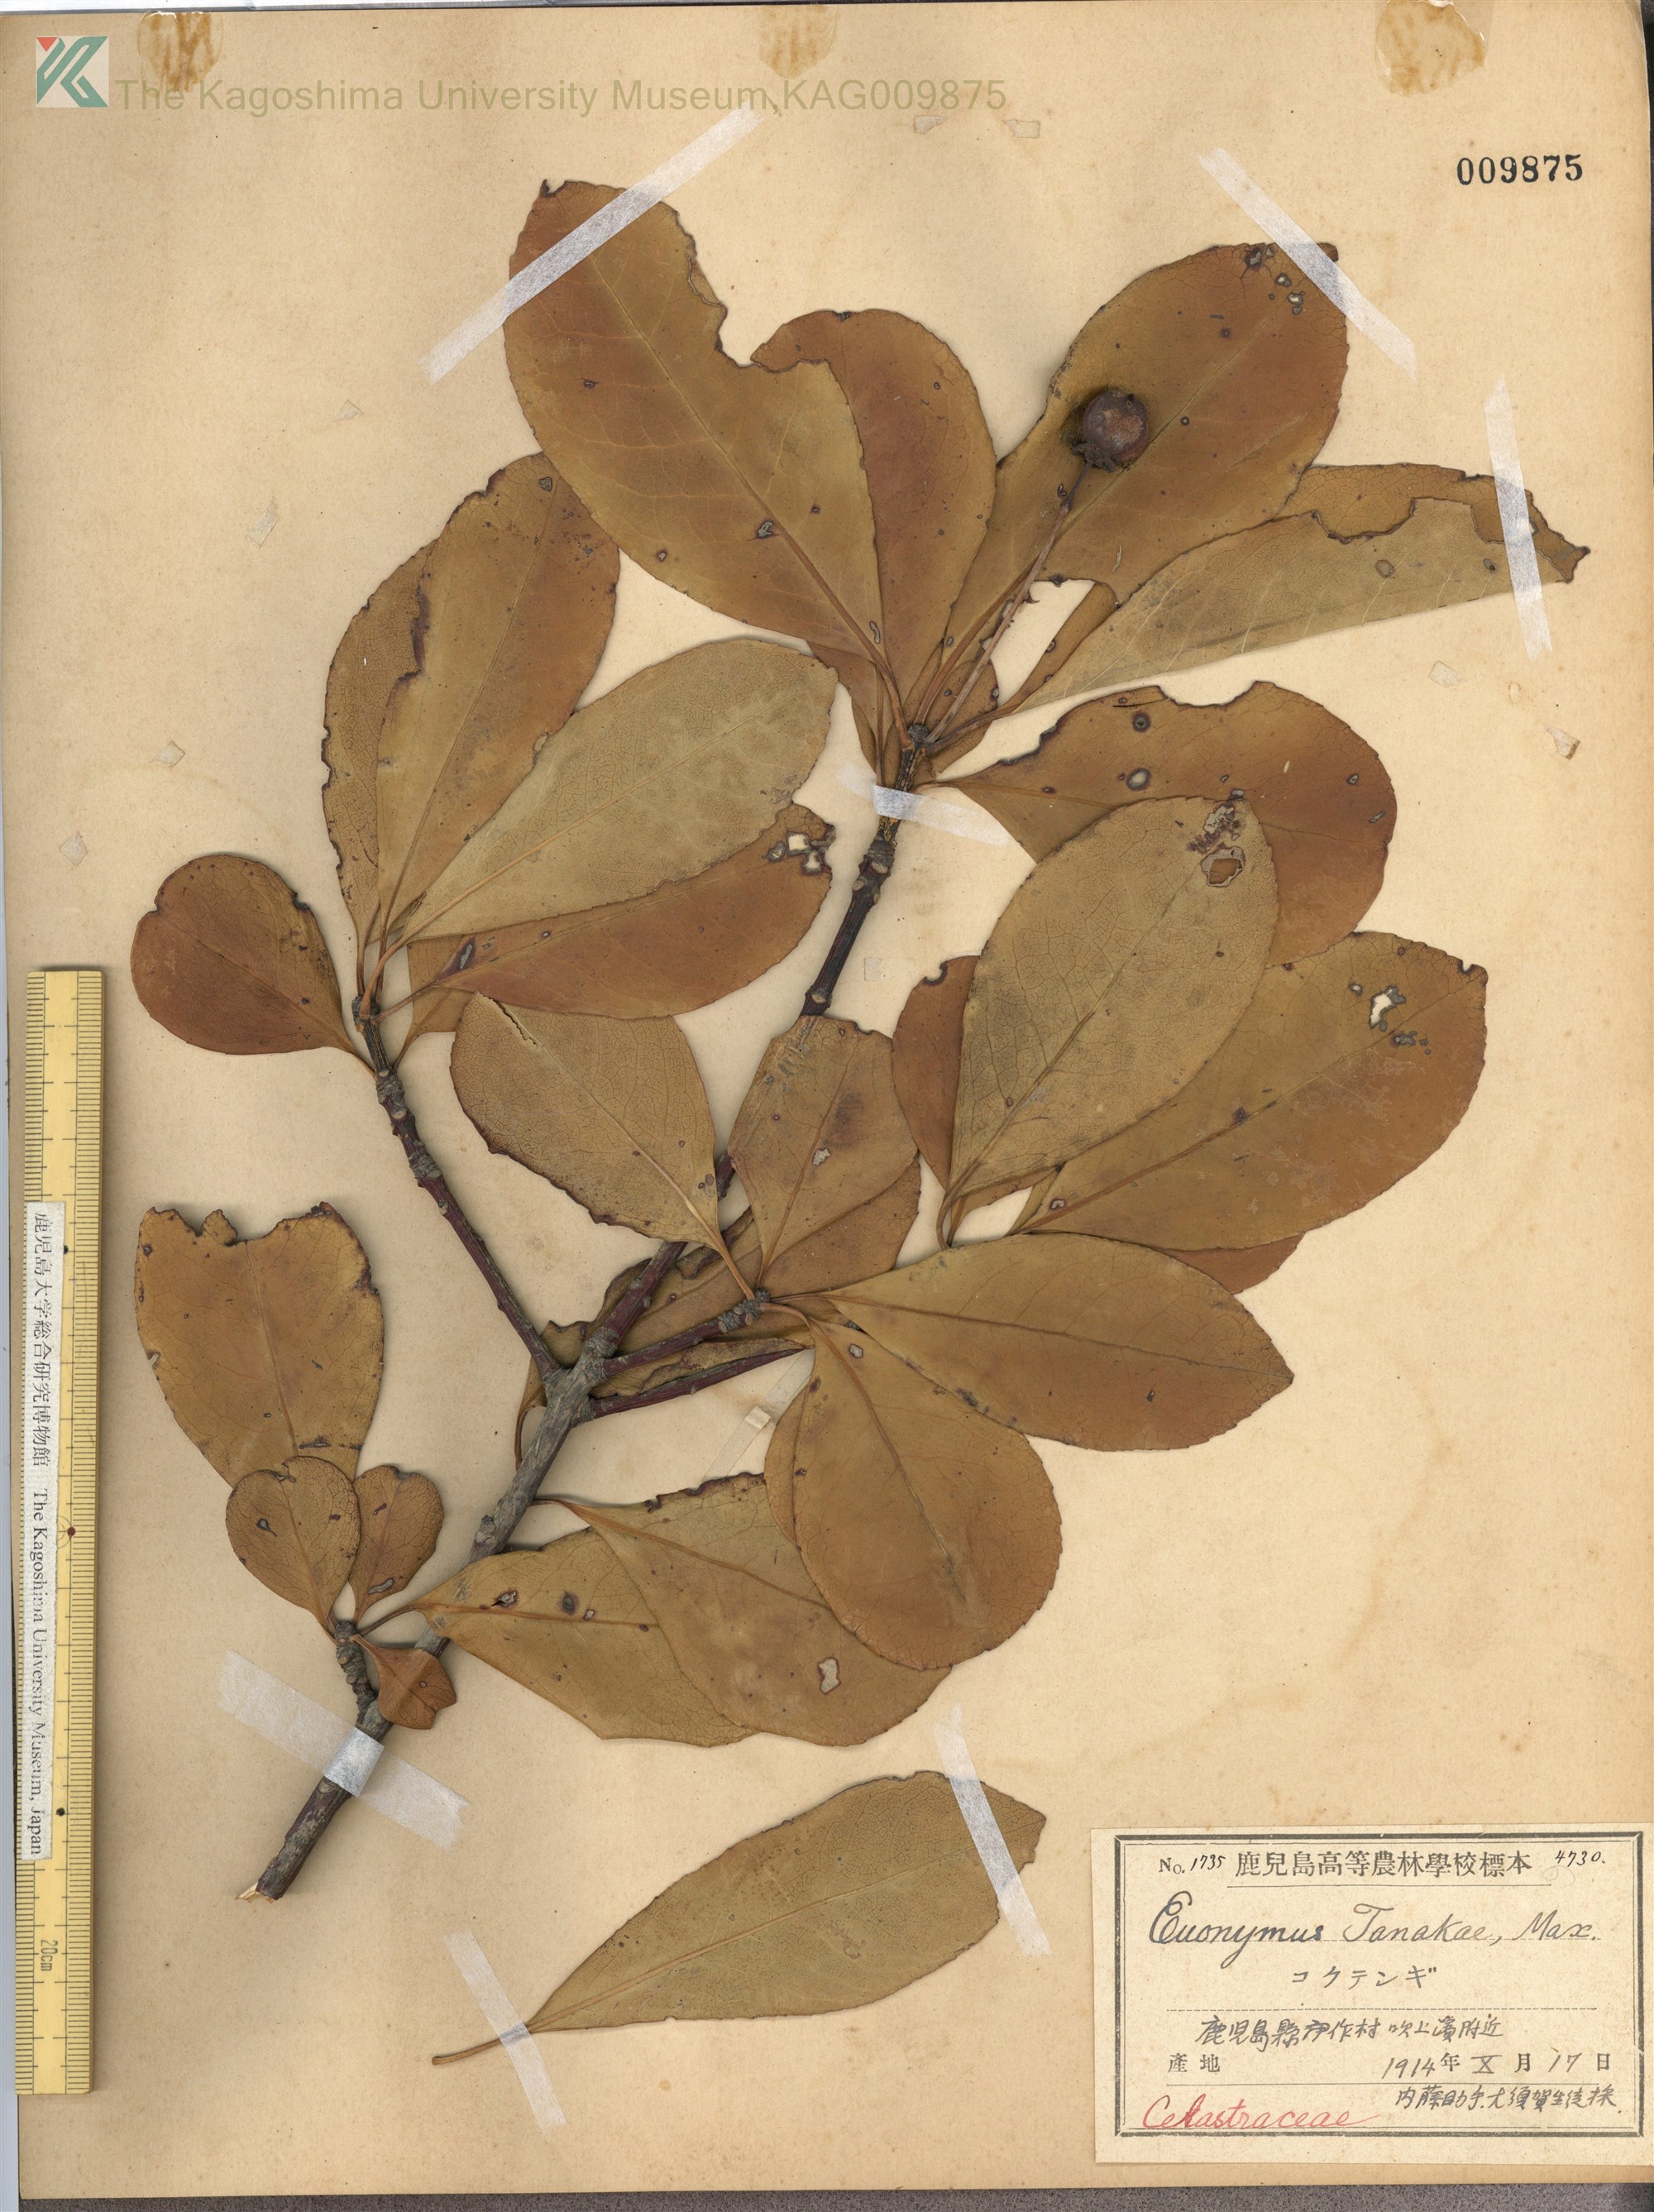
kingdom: Plantae
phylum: Tracheophyta
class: Magnoliopsida
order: Celastrales
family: Celastraceae
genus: Euonymus
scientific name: Euonymus carnosus
